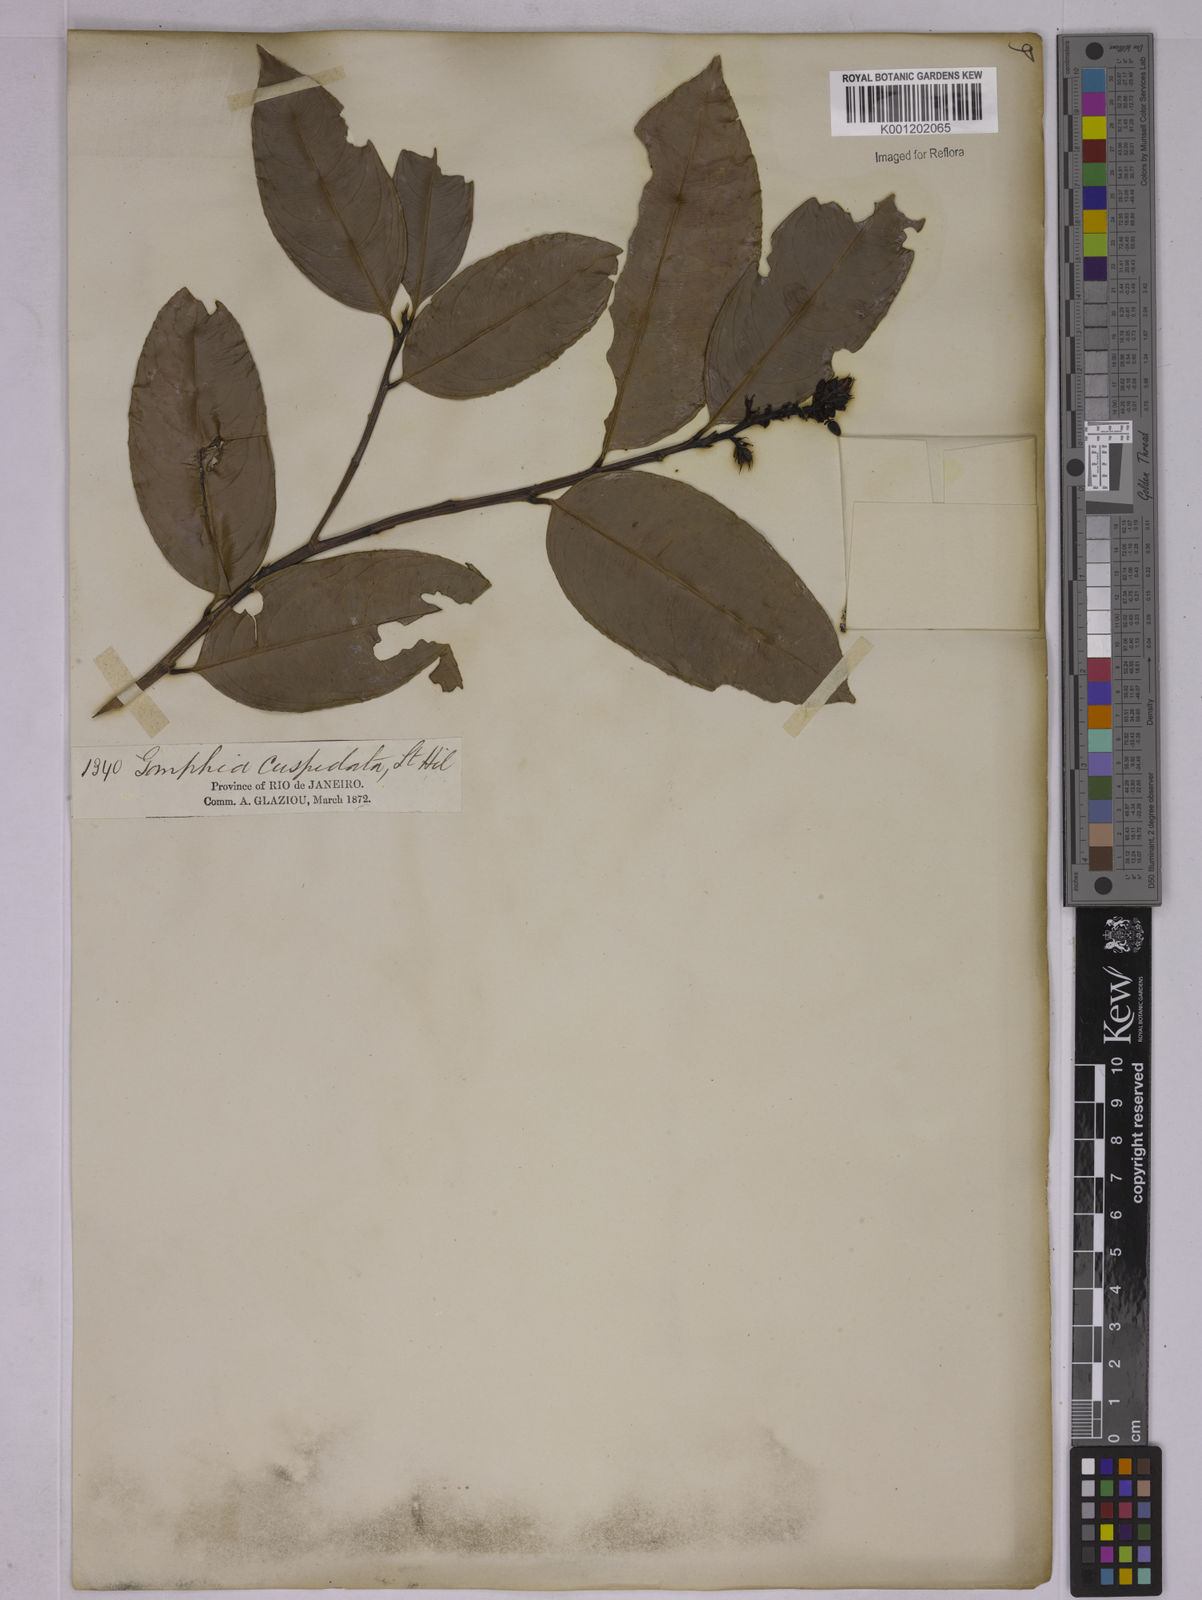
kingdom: Plantae
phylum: Tracheophyta
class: Magnoliopsida
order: Malpighiales
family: Ochnaceae
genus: Ouratea
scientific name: Ouratea cuspidata
